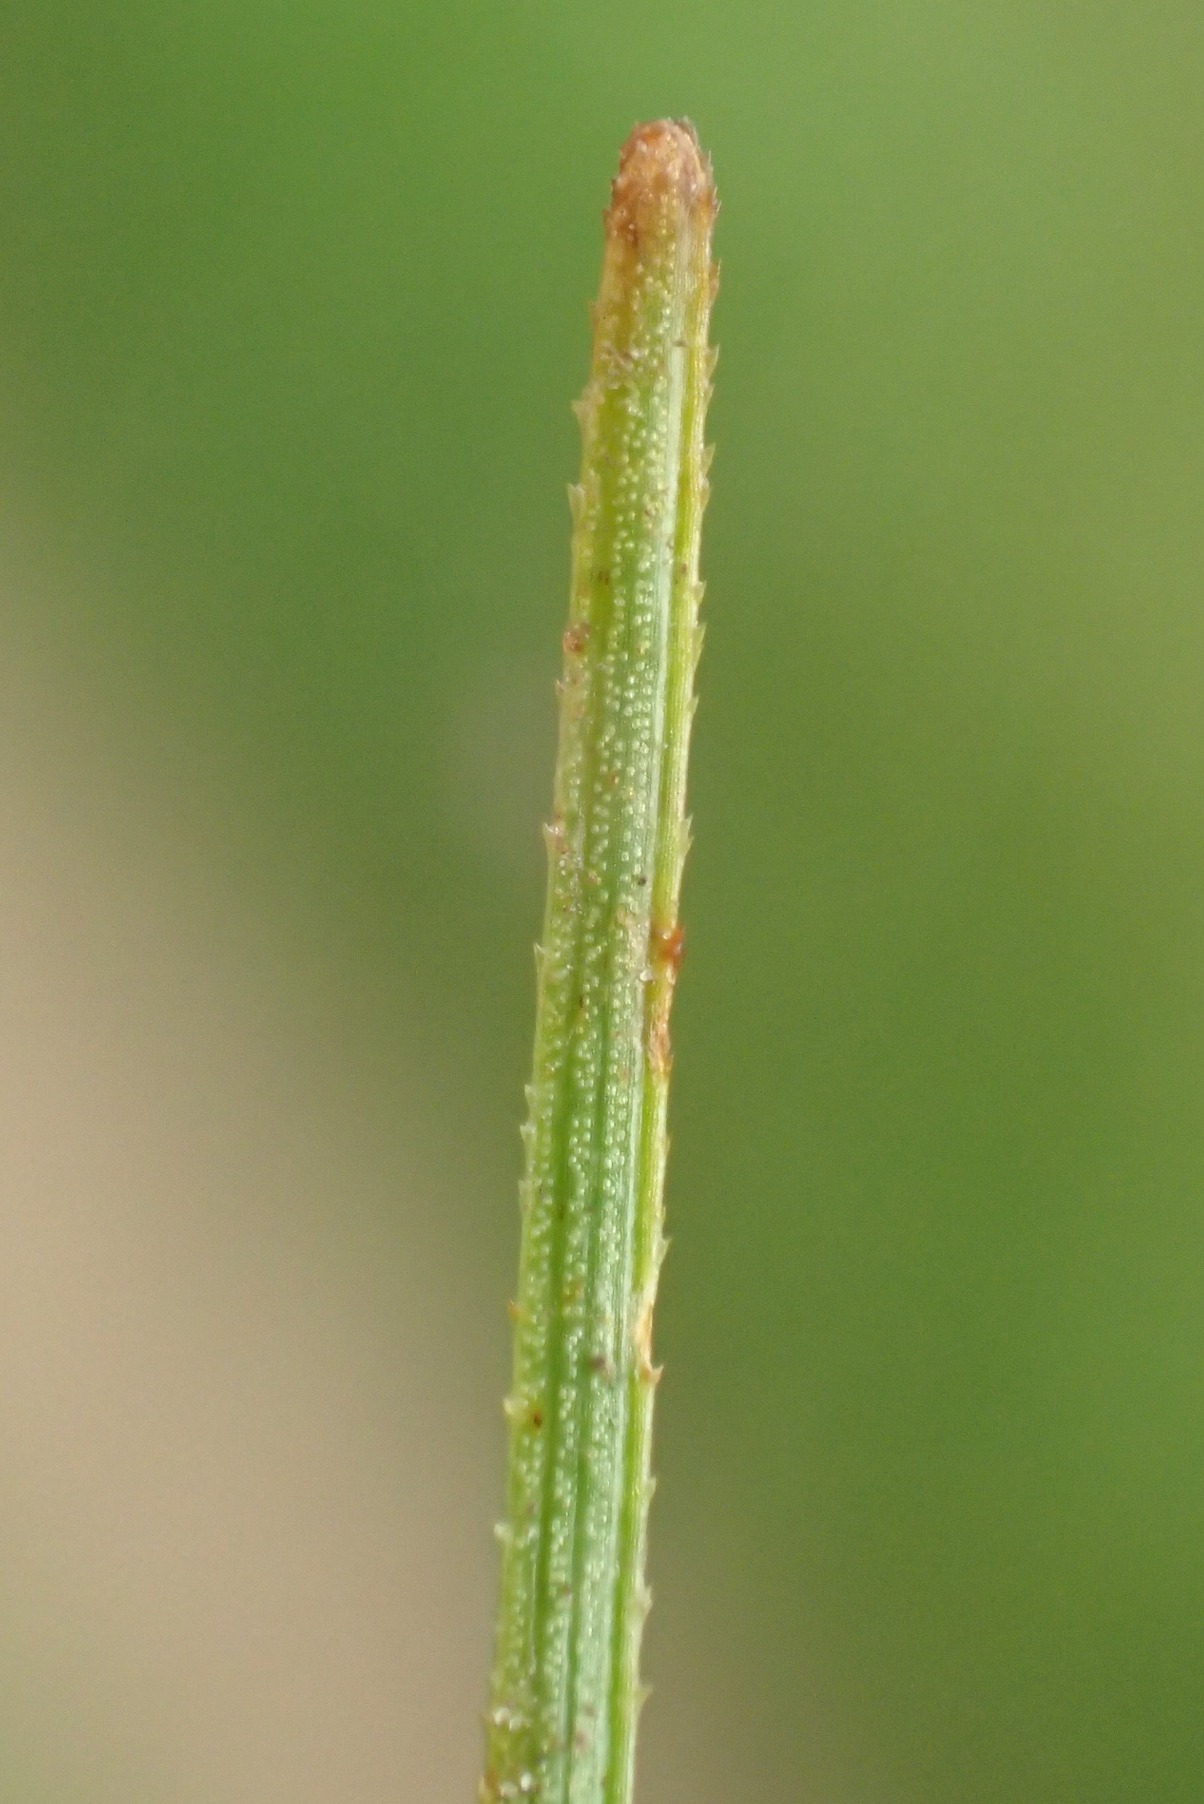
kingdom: Plantae
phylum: Tracheophyta
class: Liliopsida
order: Poales
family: Cyperaceae
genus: Blysmus
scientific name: Blysmus compressus
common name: Fladtrykt kogleaks
